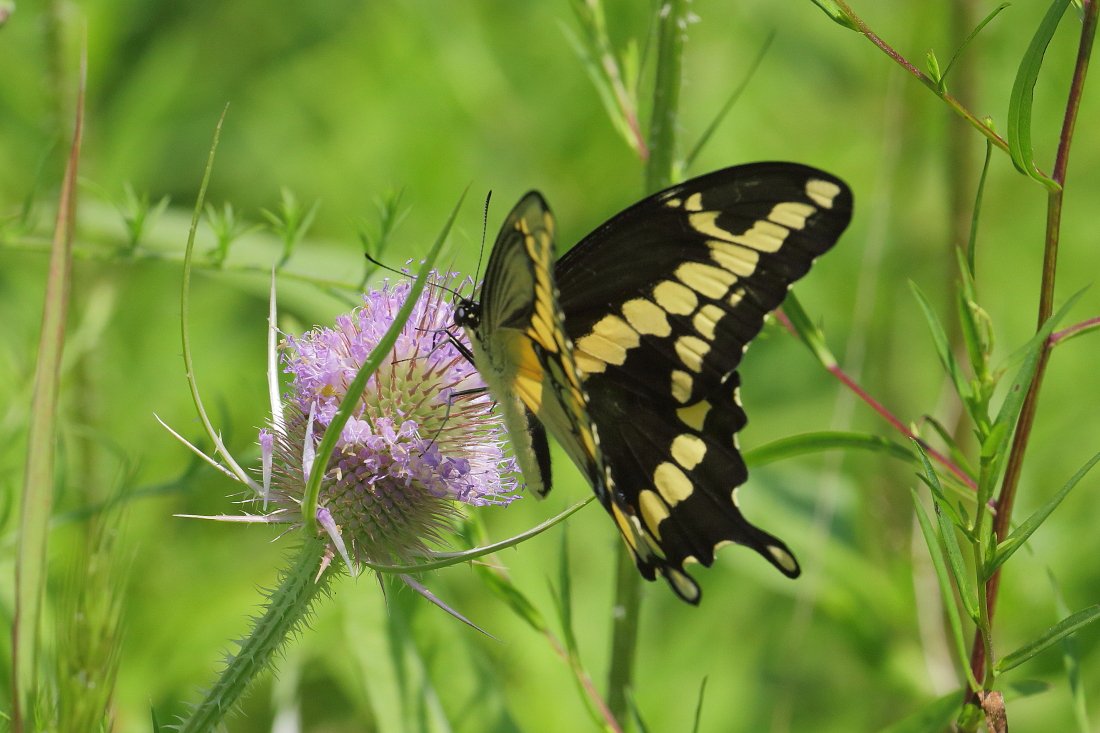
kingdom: Animalia
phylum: Arthropoda
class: Insecta
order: Lepidoptera
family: Papilionidae
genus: Papilio
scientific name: Papilio cresphontes
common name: Eastern Giant Swallowtail
